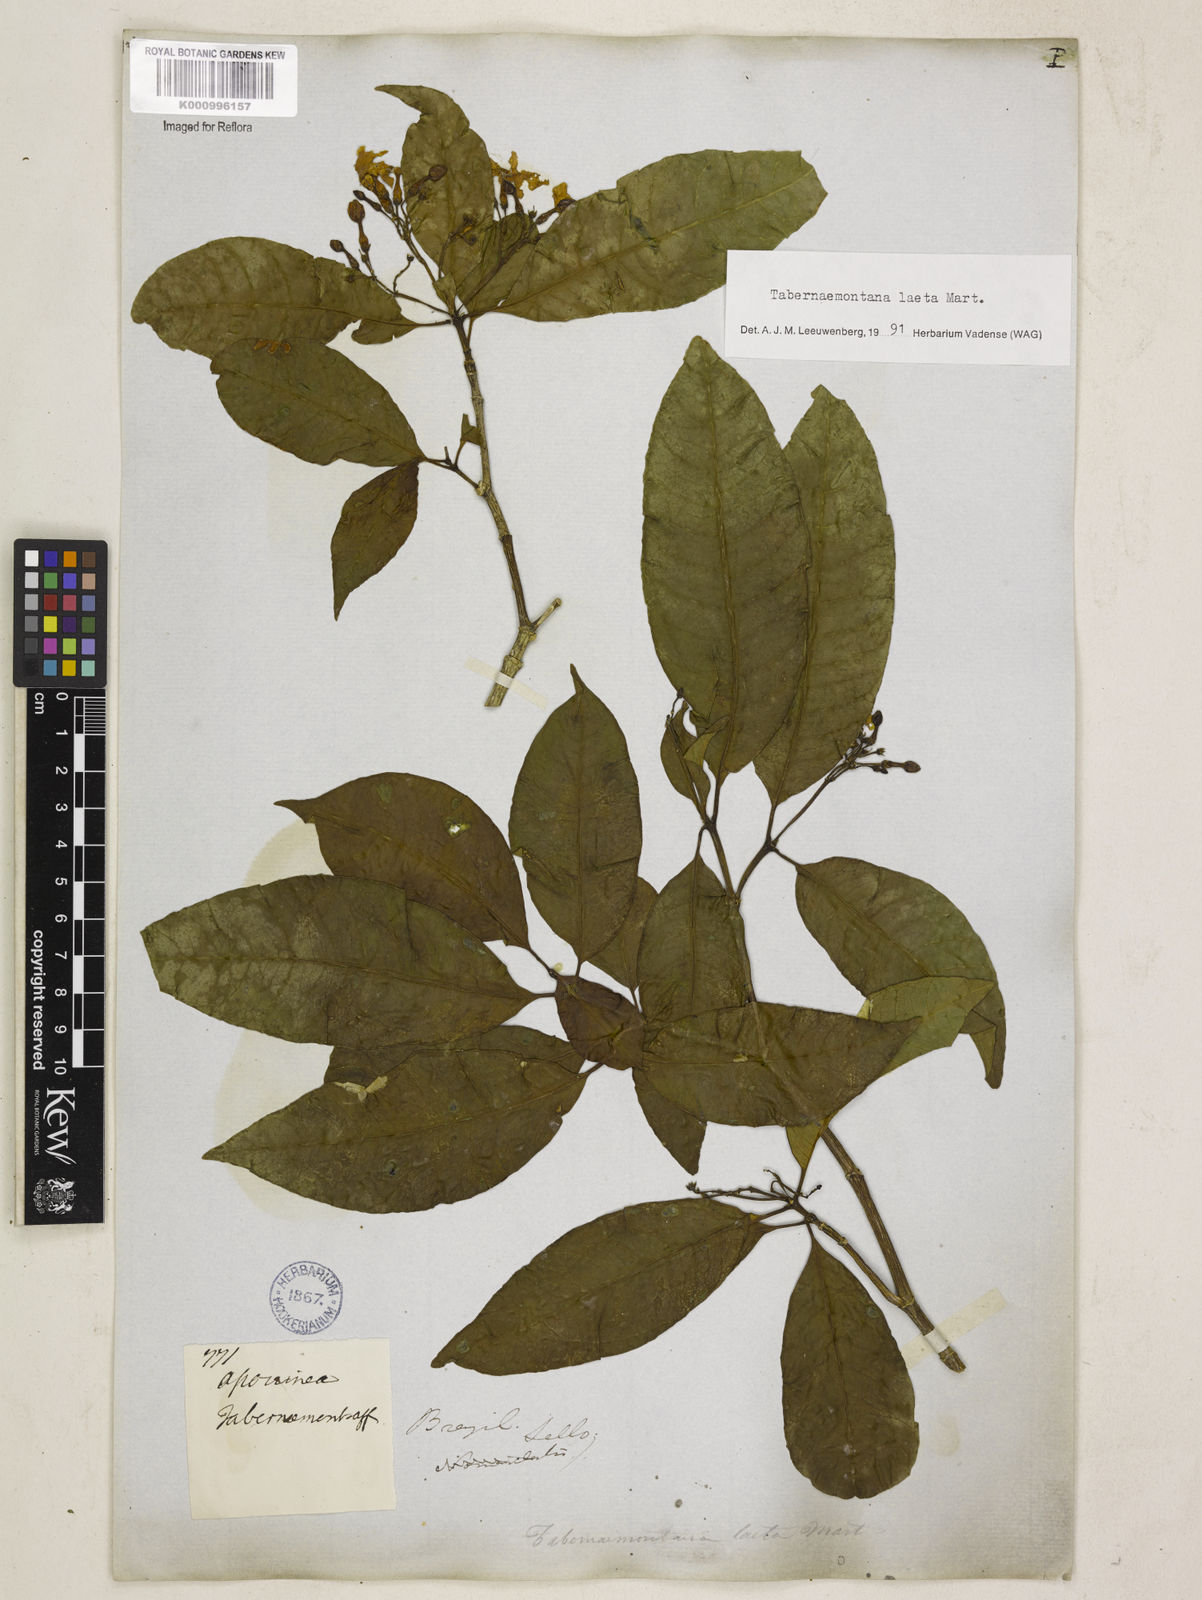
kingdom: Plantae
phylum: Tracheophyta
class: Magnoliopsida
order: Gentianales
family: Apocynaceae
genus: Tabernaemontana
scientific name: Tabernaemontana laeta
